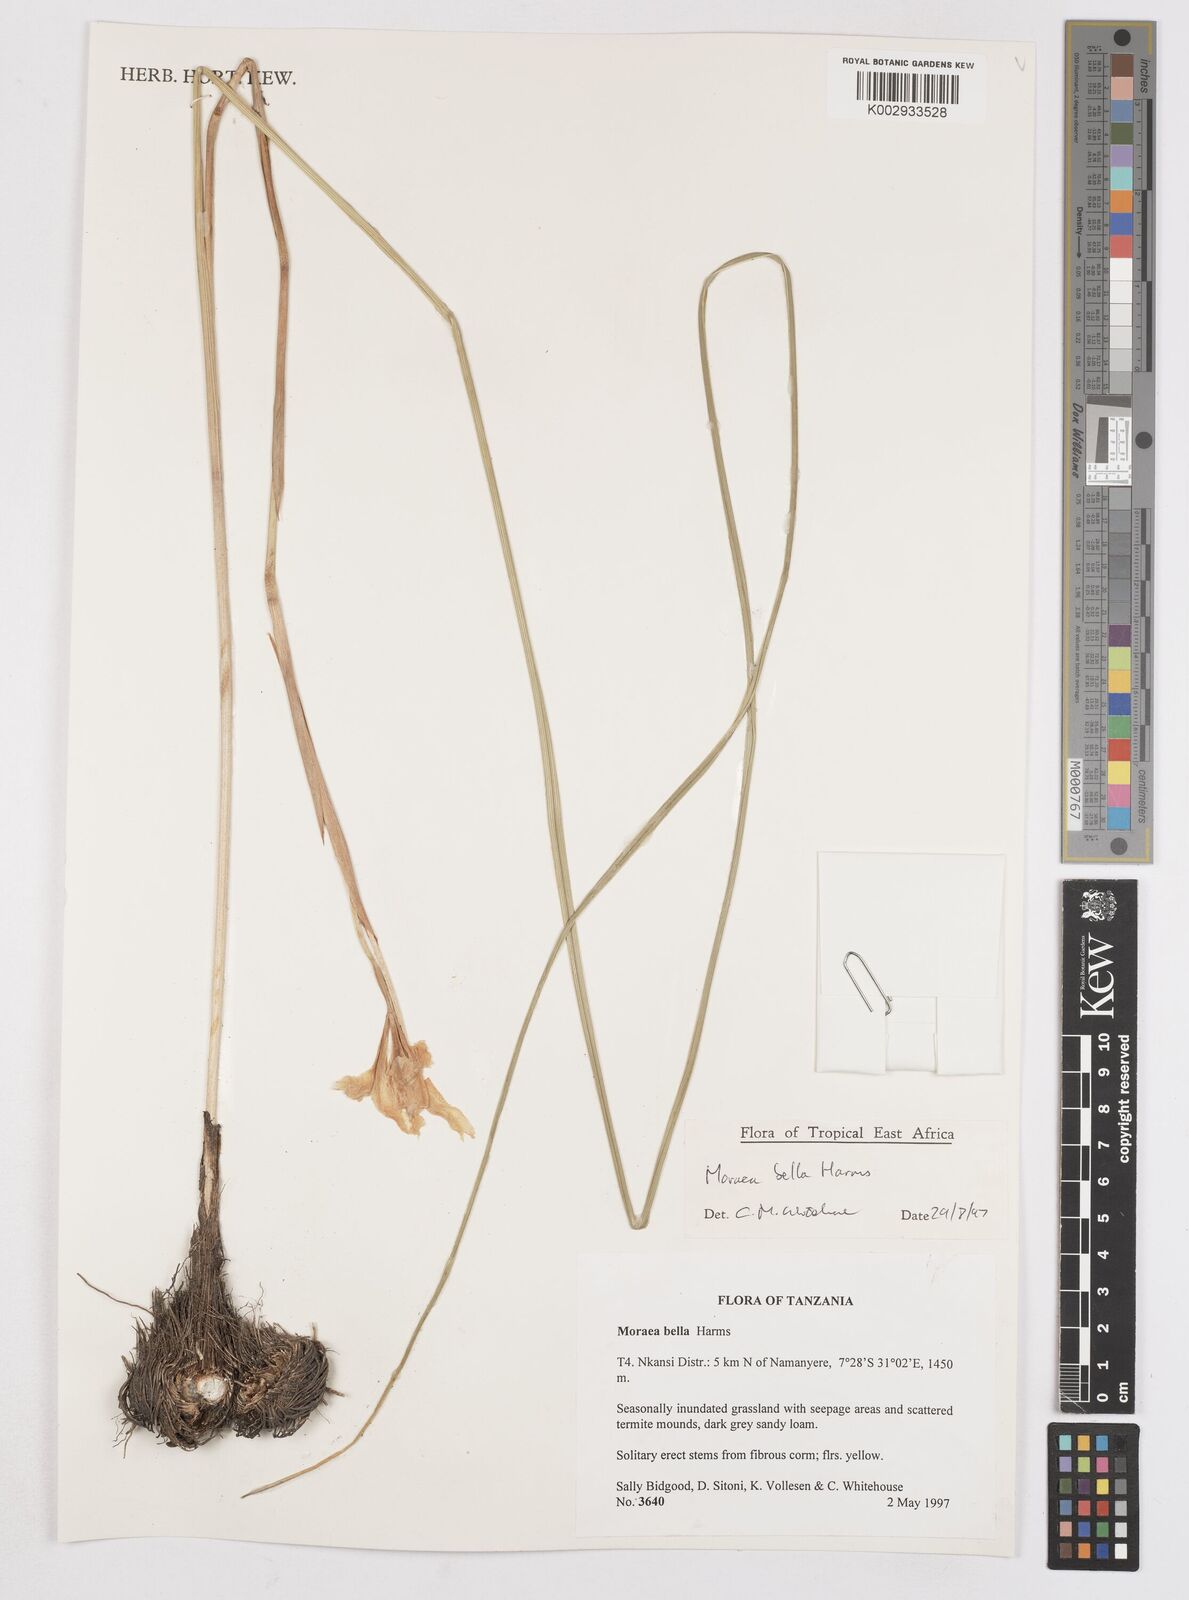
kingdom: Plantae
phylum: Tracheophyta
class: Liliopsida
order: Asparagales
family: Iridaceae
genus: Moraea
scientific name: Moraea bella
